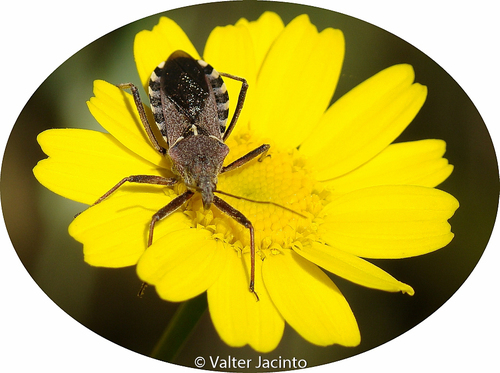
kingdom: Animalia
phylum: Arthropoda
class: Insecta
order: Hemiptera
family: Reduviidae
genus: Rhynocoris
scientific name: Rhynocoris erythropus
